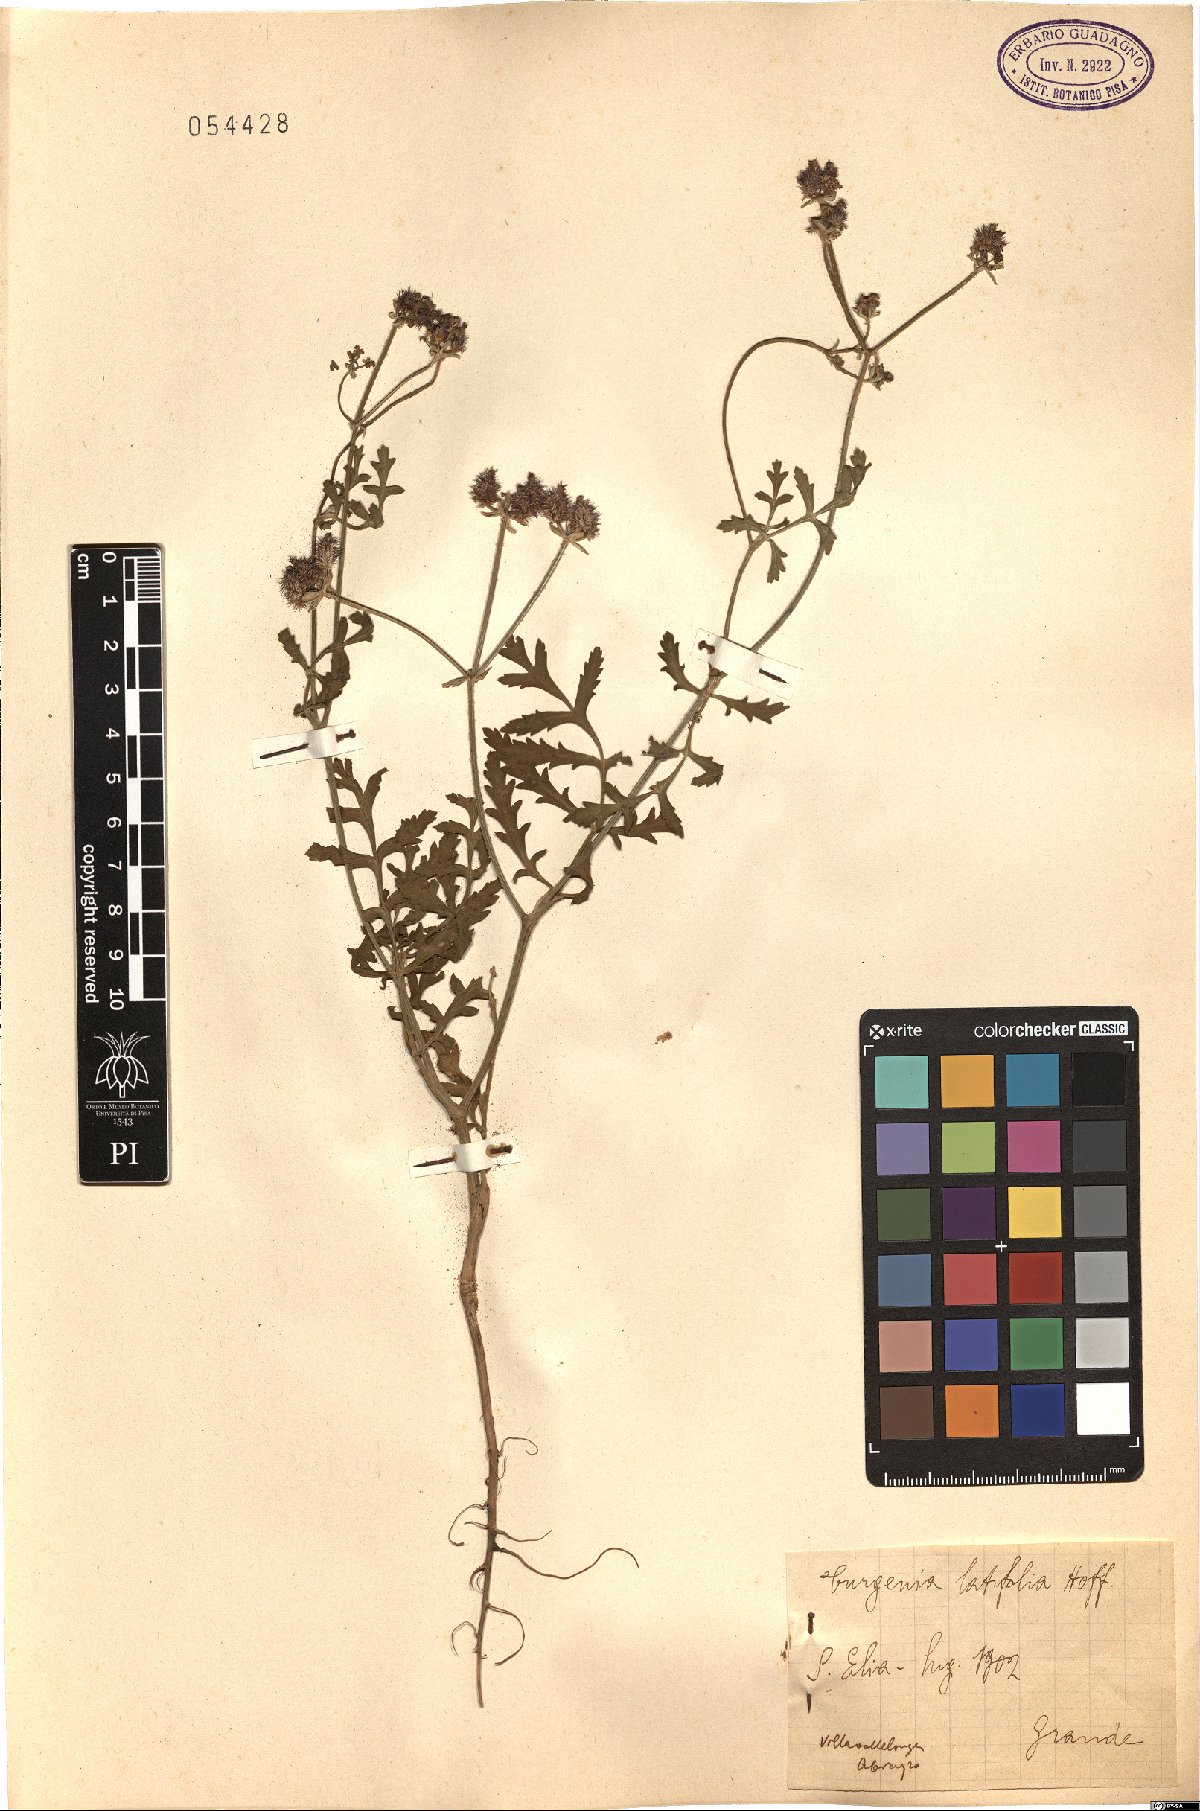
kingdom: Plantae
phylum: Tracheophyta
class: Magnoliopsida
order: Apiales
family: Apiaceae
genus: Turgenia
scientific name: Turgenia latifolia
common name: Greater bur-parsley
